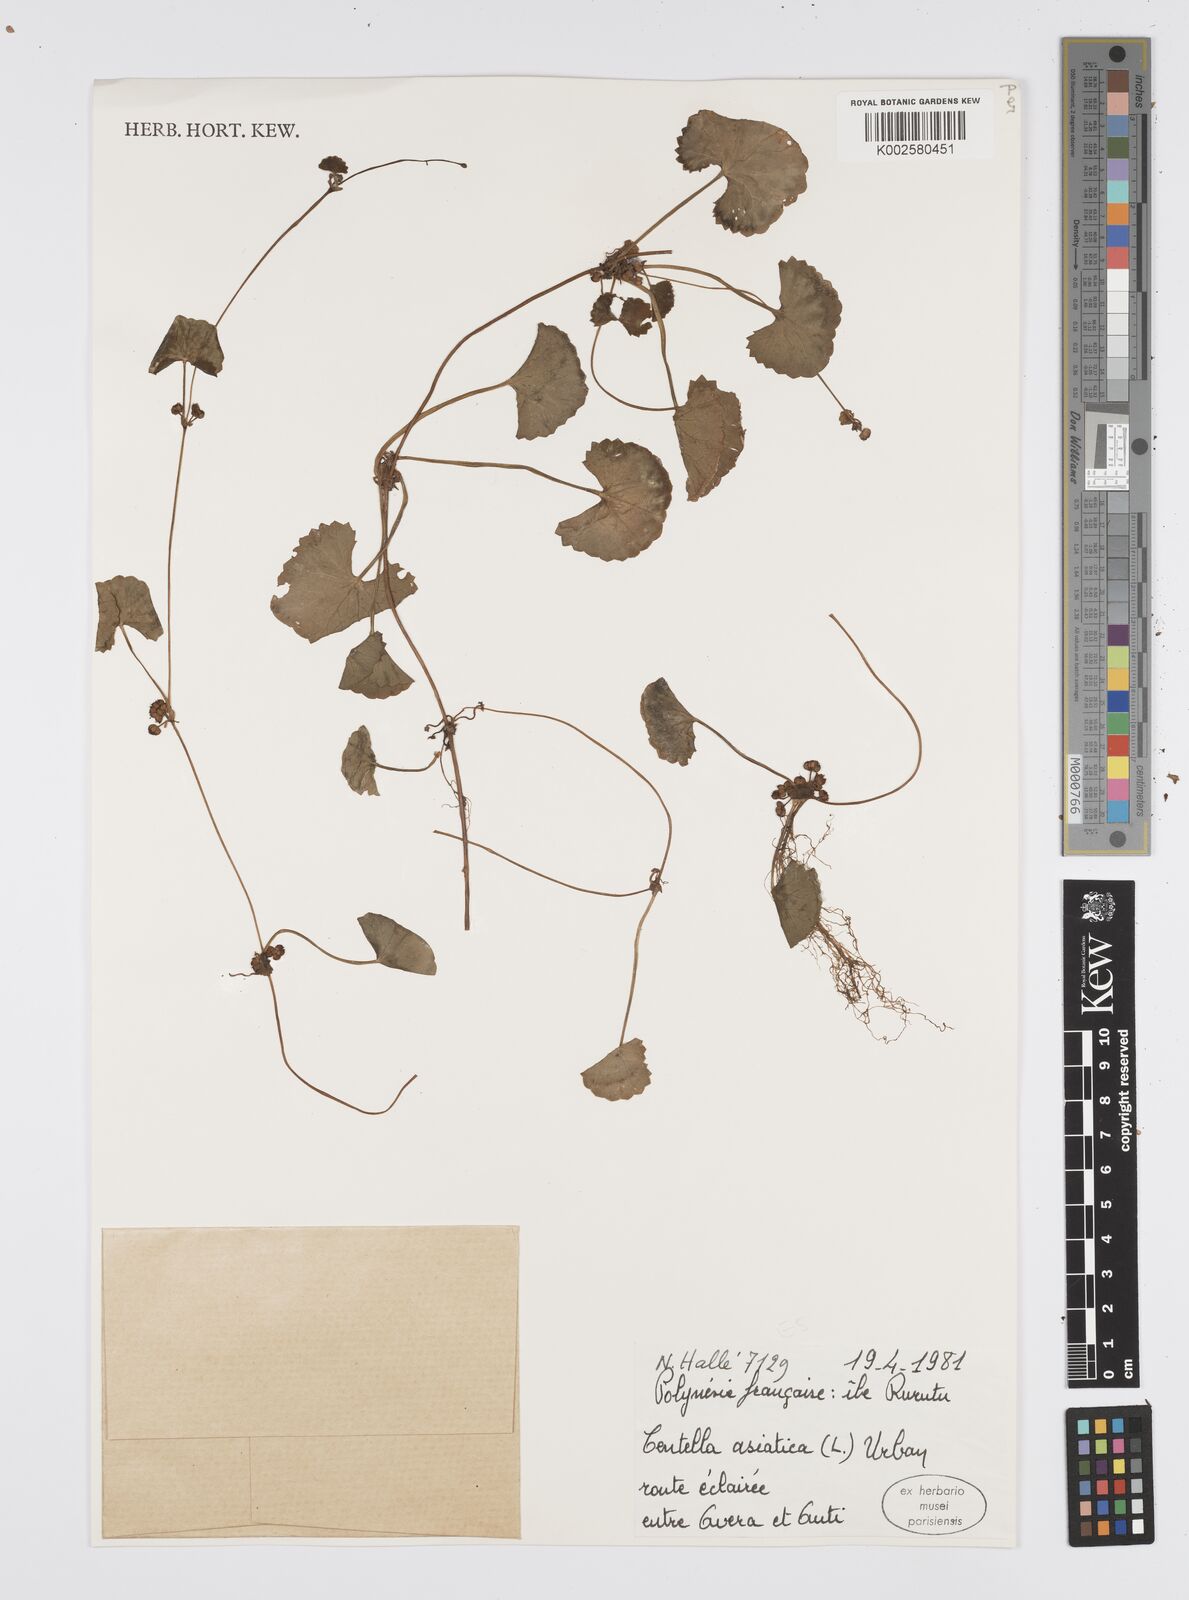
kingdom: Plantae
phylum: Tracheophyta
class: Magnoliopsida
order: Apiales
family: Apiaceae
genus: Centella
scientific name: Centella asiatica
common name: Spadeleaf
